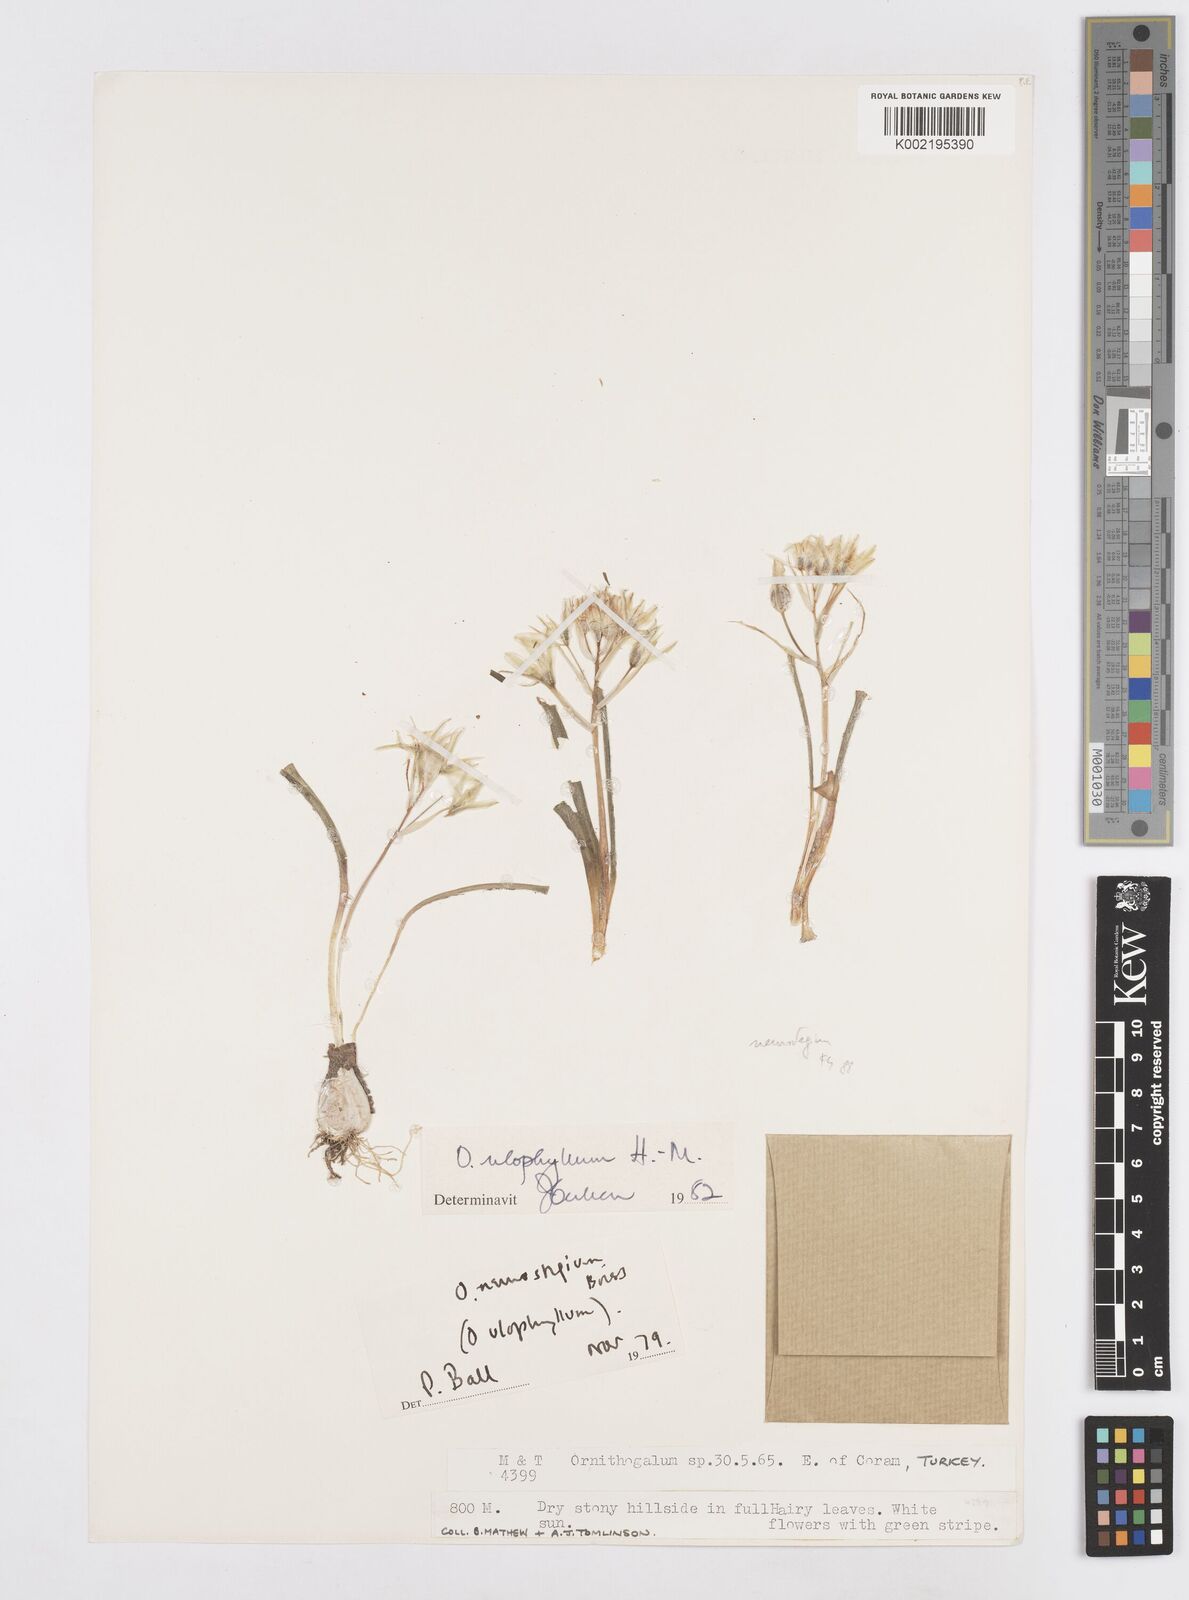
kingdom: Plantae
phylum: Tracheophyta
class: Liliopsida
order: Asparagales
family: Asparagaceae
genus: Ornithogalum
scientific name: Ornithogalum neurostegium
